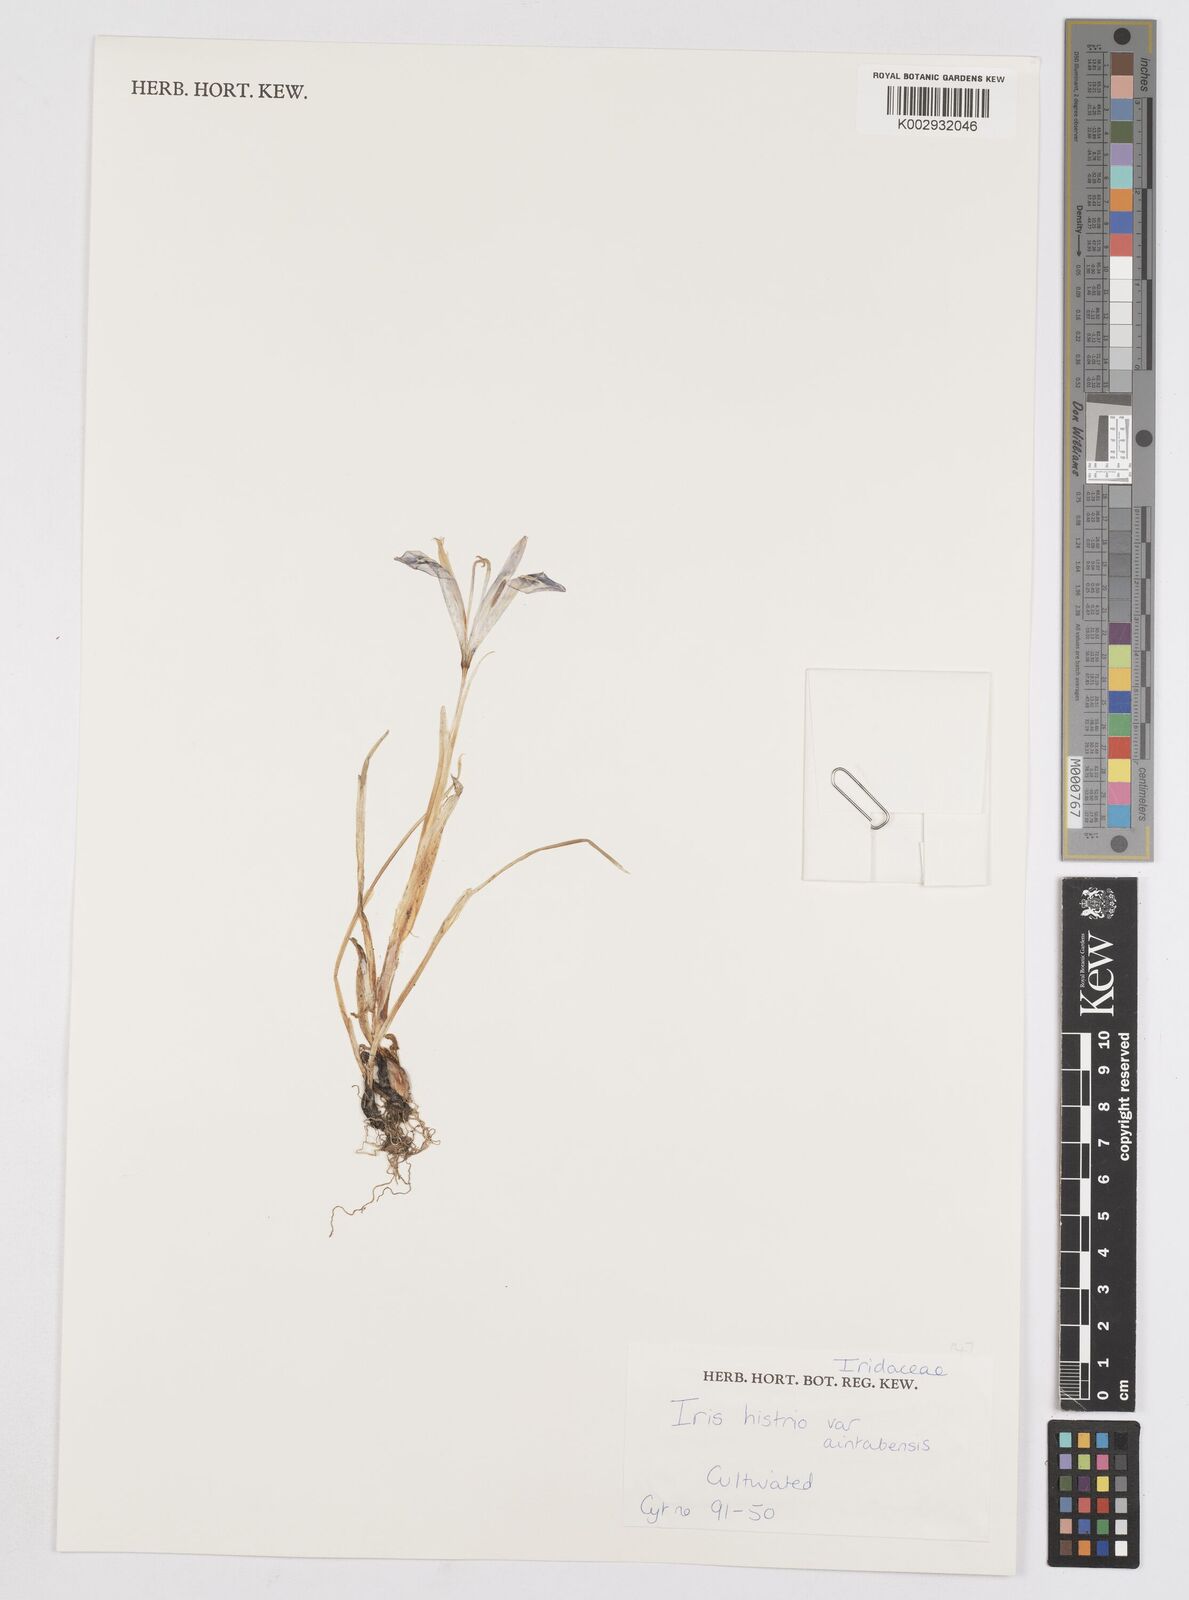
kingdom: Plantae
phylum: Tracheophyta
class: Liliopsida
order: Asparagales
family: Iridaceae
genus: Iris
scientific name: Iris histrio
